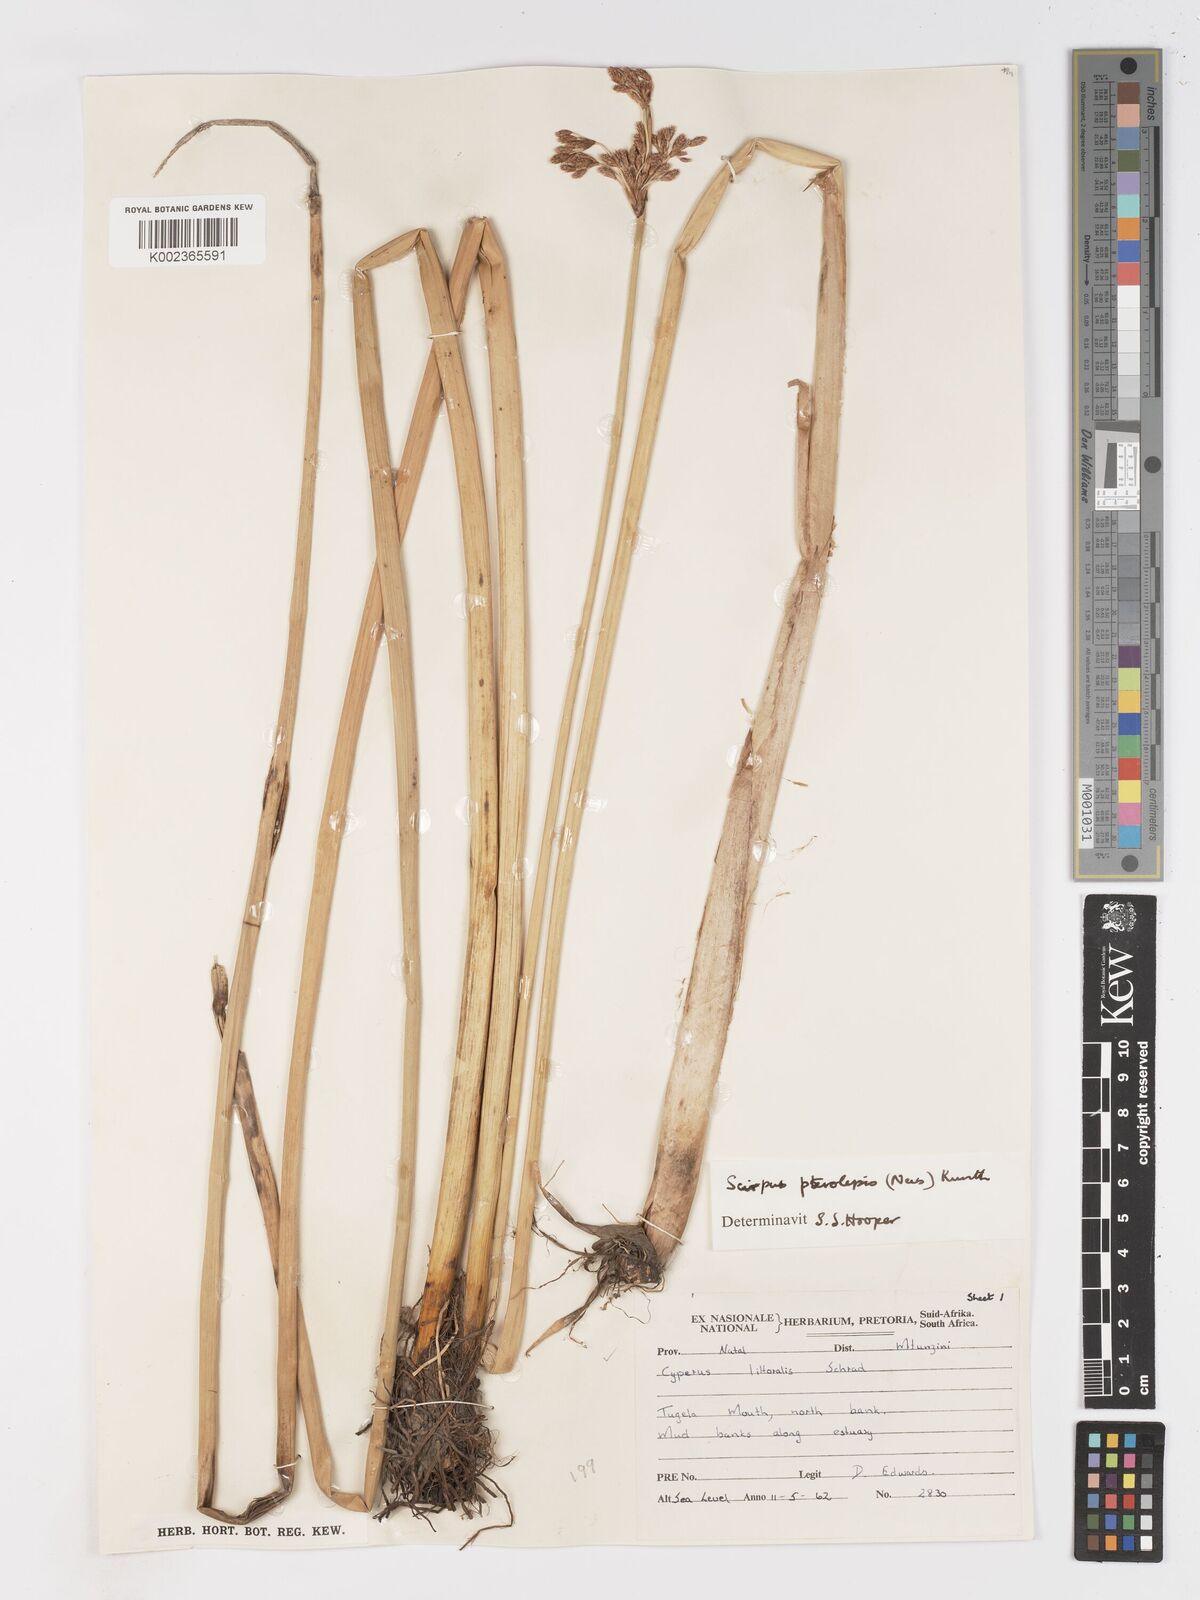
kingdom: Plantae
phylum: Tracheophyta
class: Liliopsida
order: Poales
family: Cyperaceae
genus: Schoenoplectus
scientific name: Schoenoplectus
